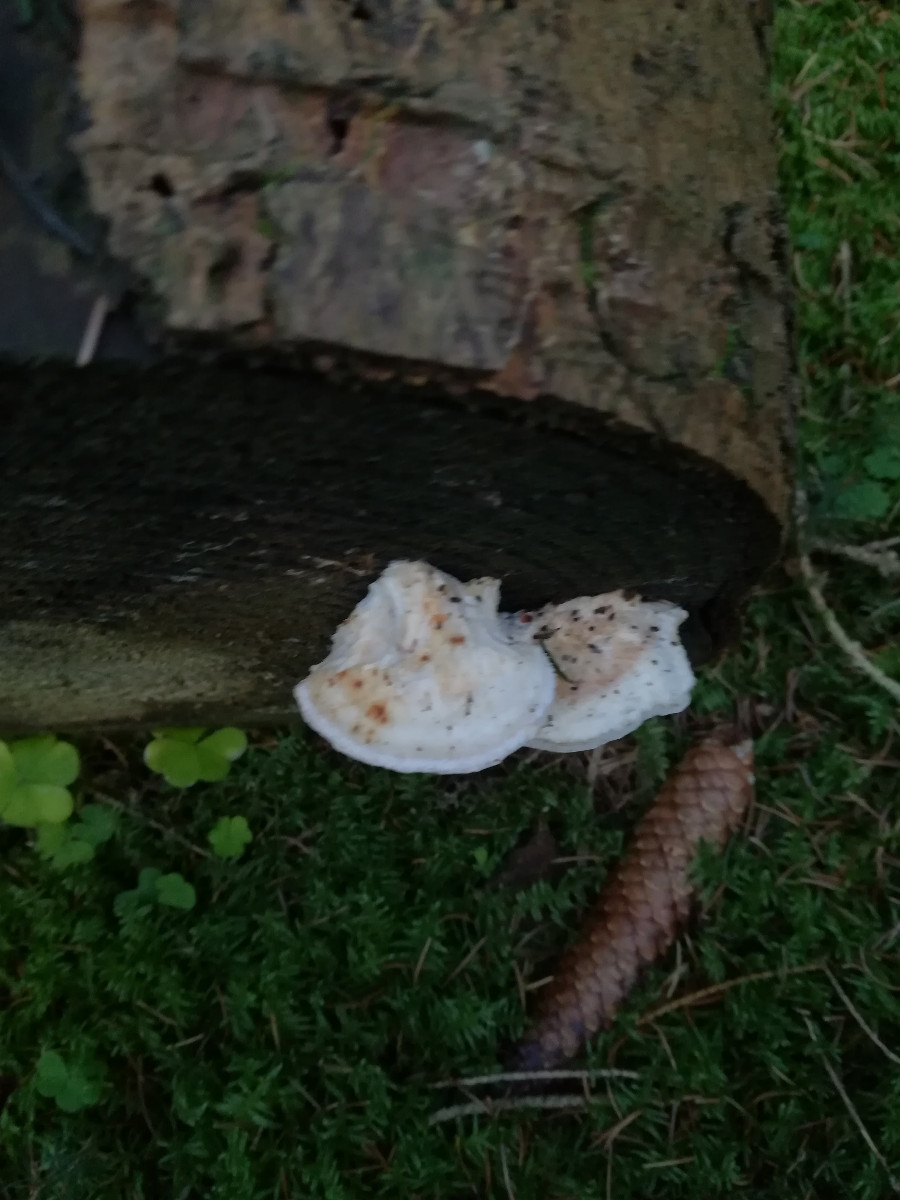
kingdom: Fungi
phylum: Basidiomycota
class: Agaricomycetes
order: Polyporales
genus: Fuscopostia
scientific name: Fuscopostia fragilis
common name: brunende kødporesvamp
